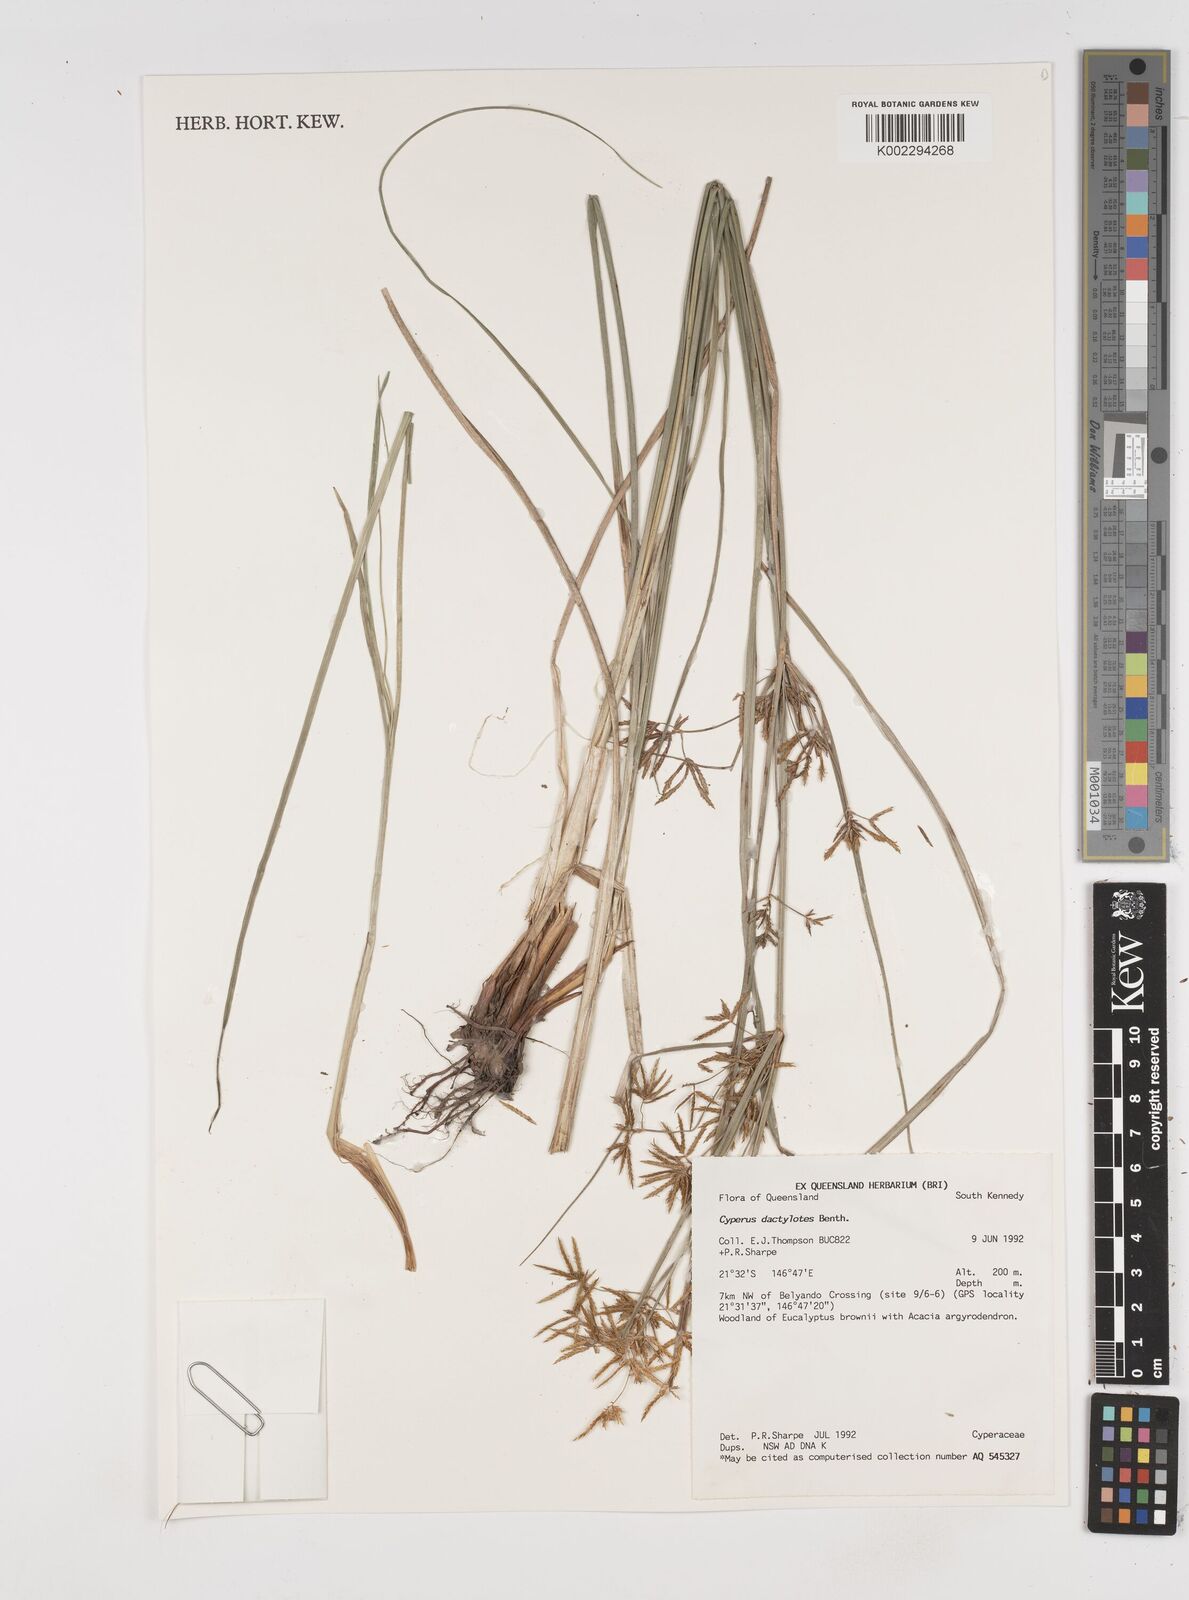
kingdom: Plantae
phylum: Tracheophyta
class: Liliopsida
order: Poales
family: Cyperaceae
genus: Cyperus
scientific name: Cyperus dactylotes
